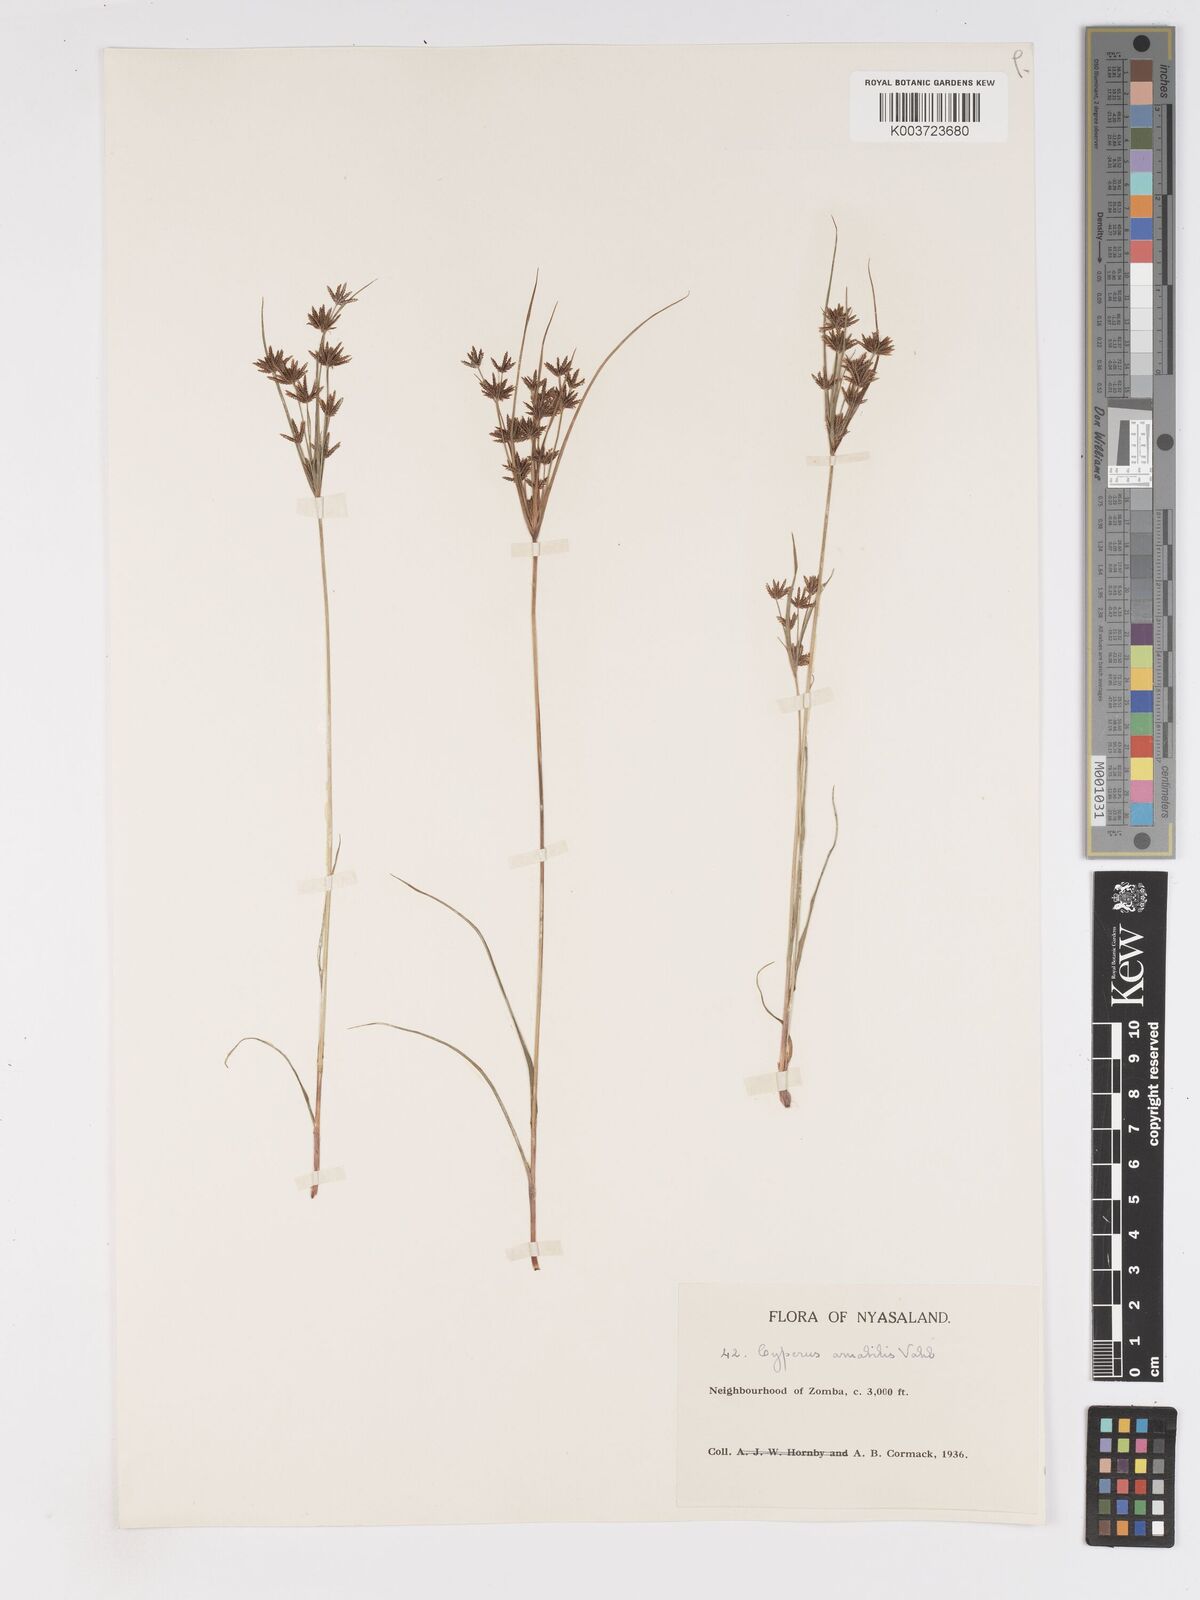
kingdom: Plantae
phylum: Tracheophyta
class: Liliopsida
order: Poales
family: Cyperaceae
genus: Cyperus
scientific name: Cyperus amabilis
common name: Foothill flat sedge
